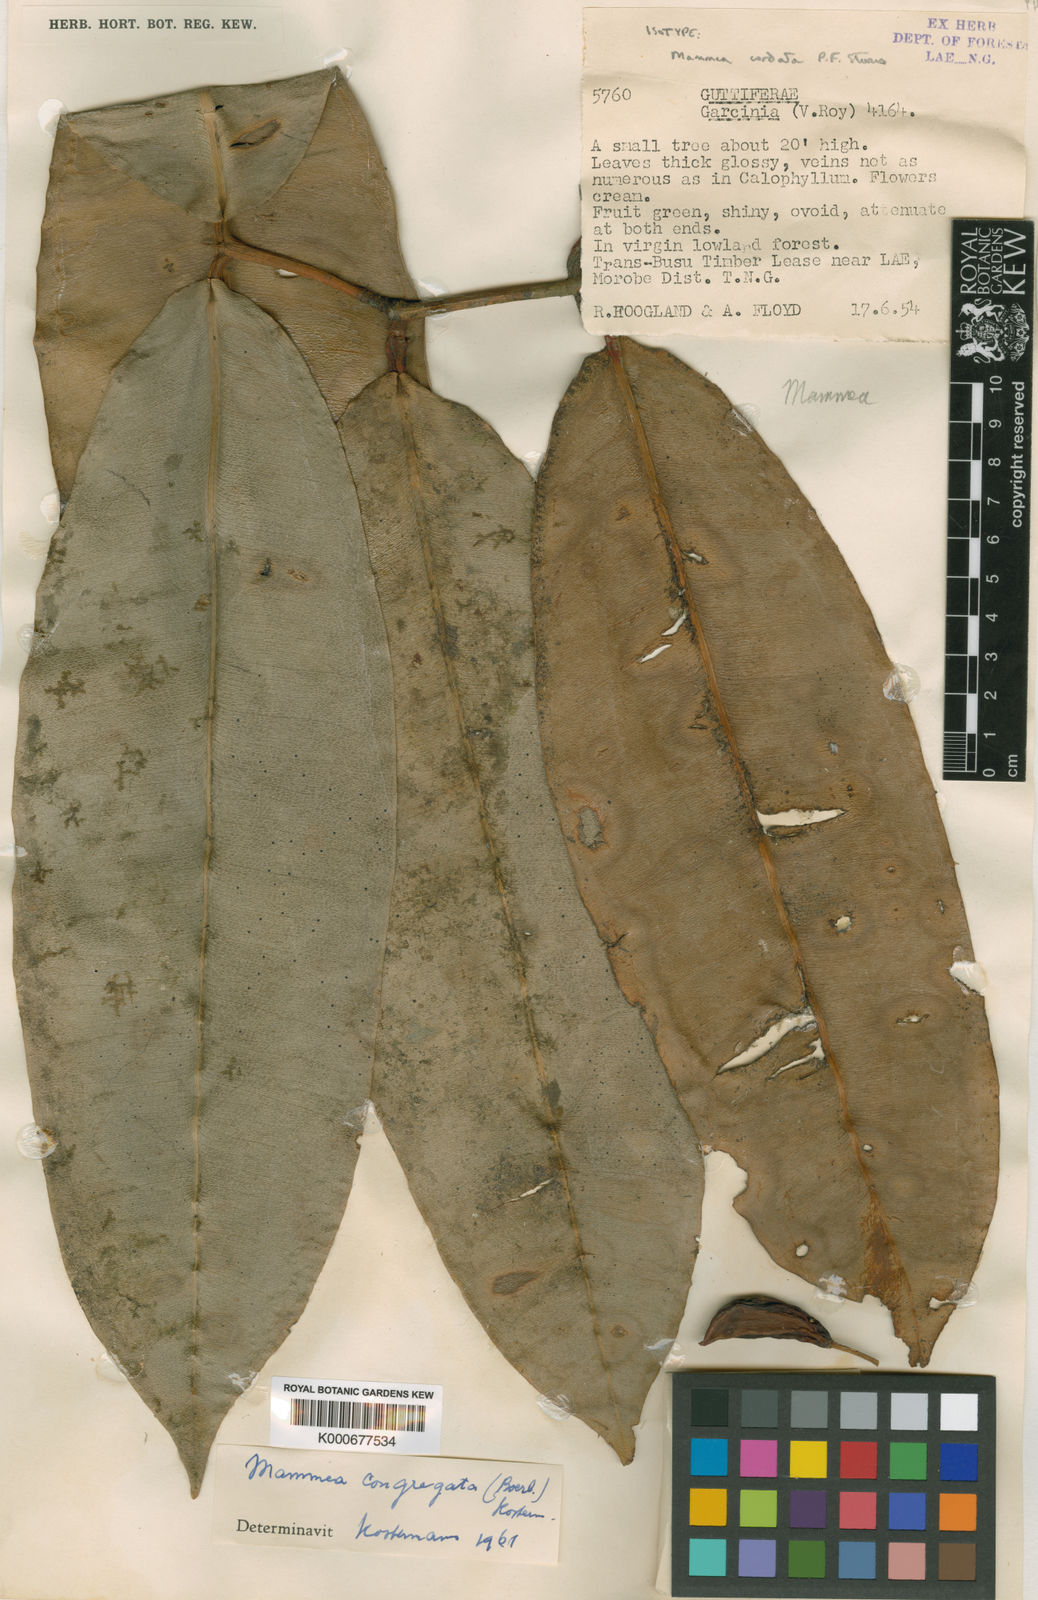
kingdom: Plantae
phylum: Tracheophyta
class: Magnoliopsida
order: Malpighiales
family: Calophyllaceae
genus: Mammea
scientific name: Mammea cordata
